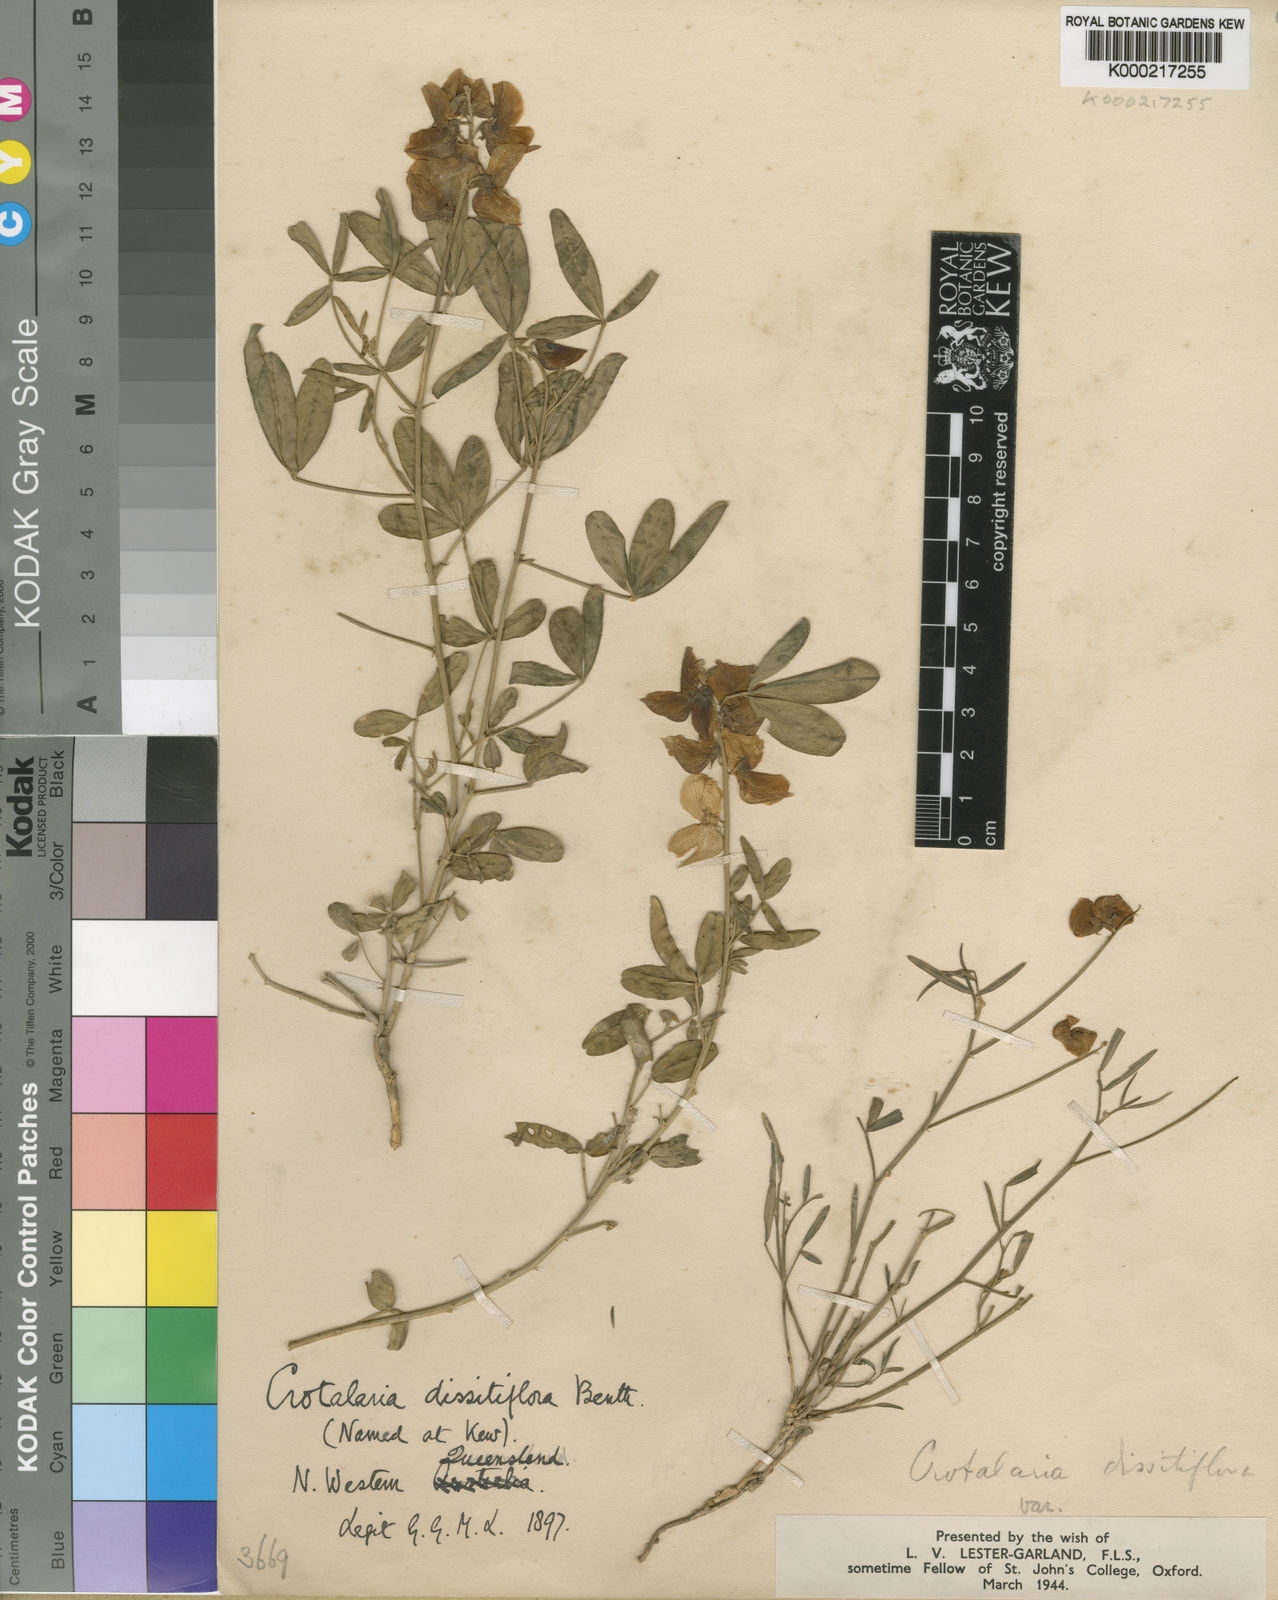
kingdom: Plantae
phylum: Tracheophyta
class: Magnoliopsida
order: Fabales
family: Fabaceae
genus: Crotalaria
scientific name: Crotalaria dissitiflora
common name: Grey rattlepod
